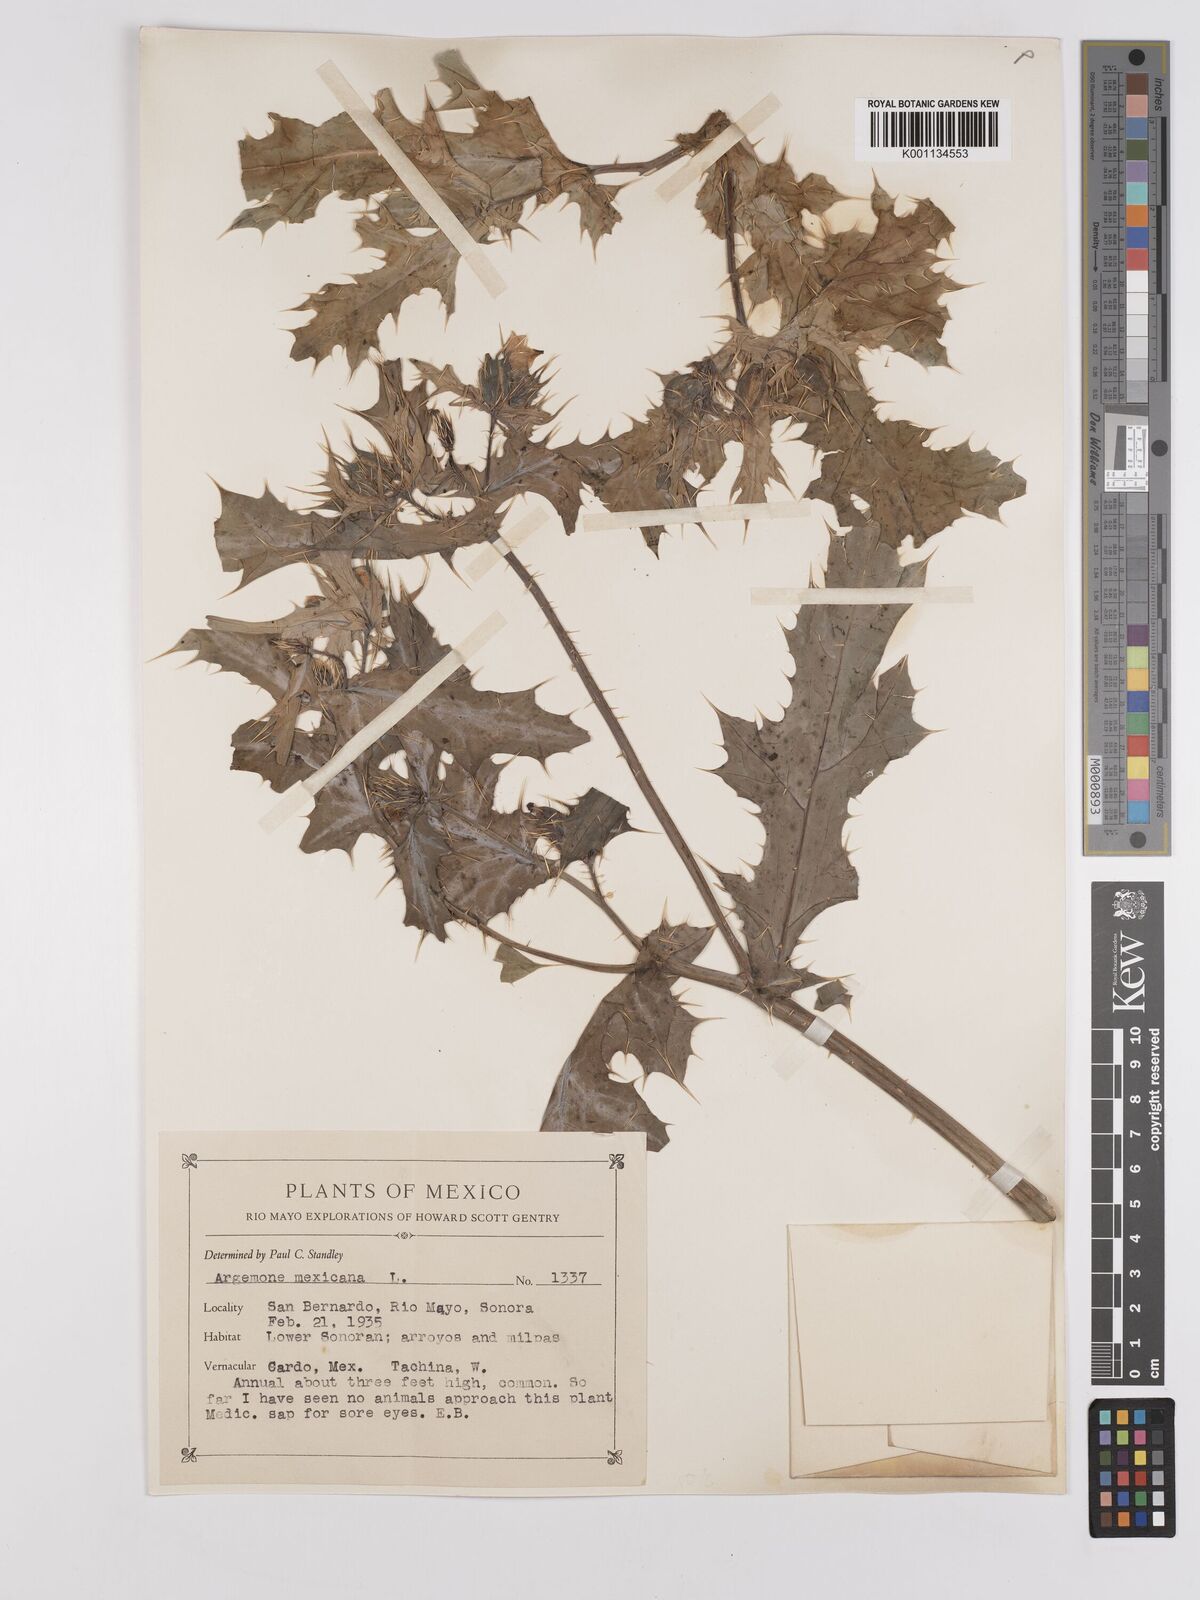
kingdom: Plantae
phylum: Tracheophyta
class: Magnoliopsida
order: Ranunculales
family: Papaveraceae
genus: Argemone
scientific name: Argemone mexicana
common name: Mexican poppy
